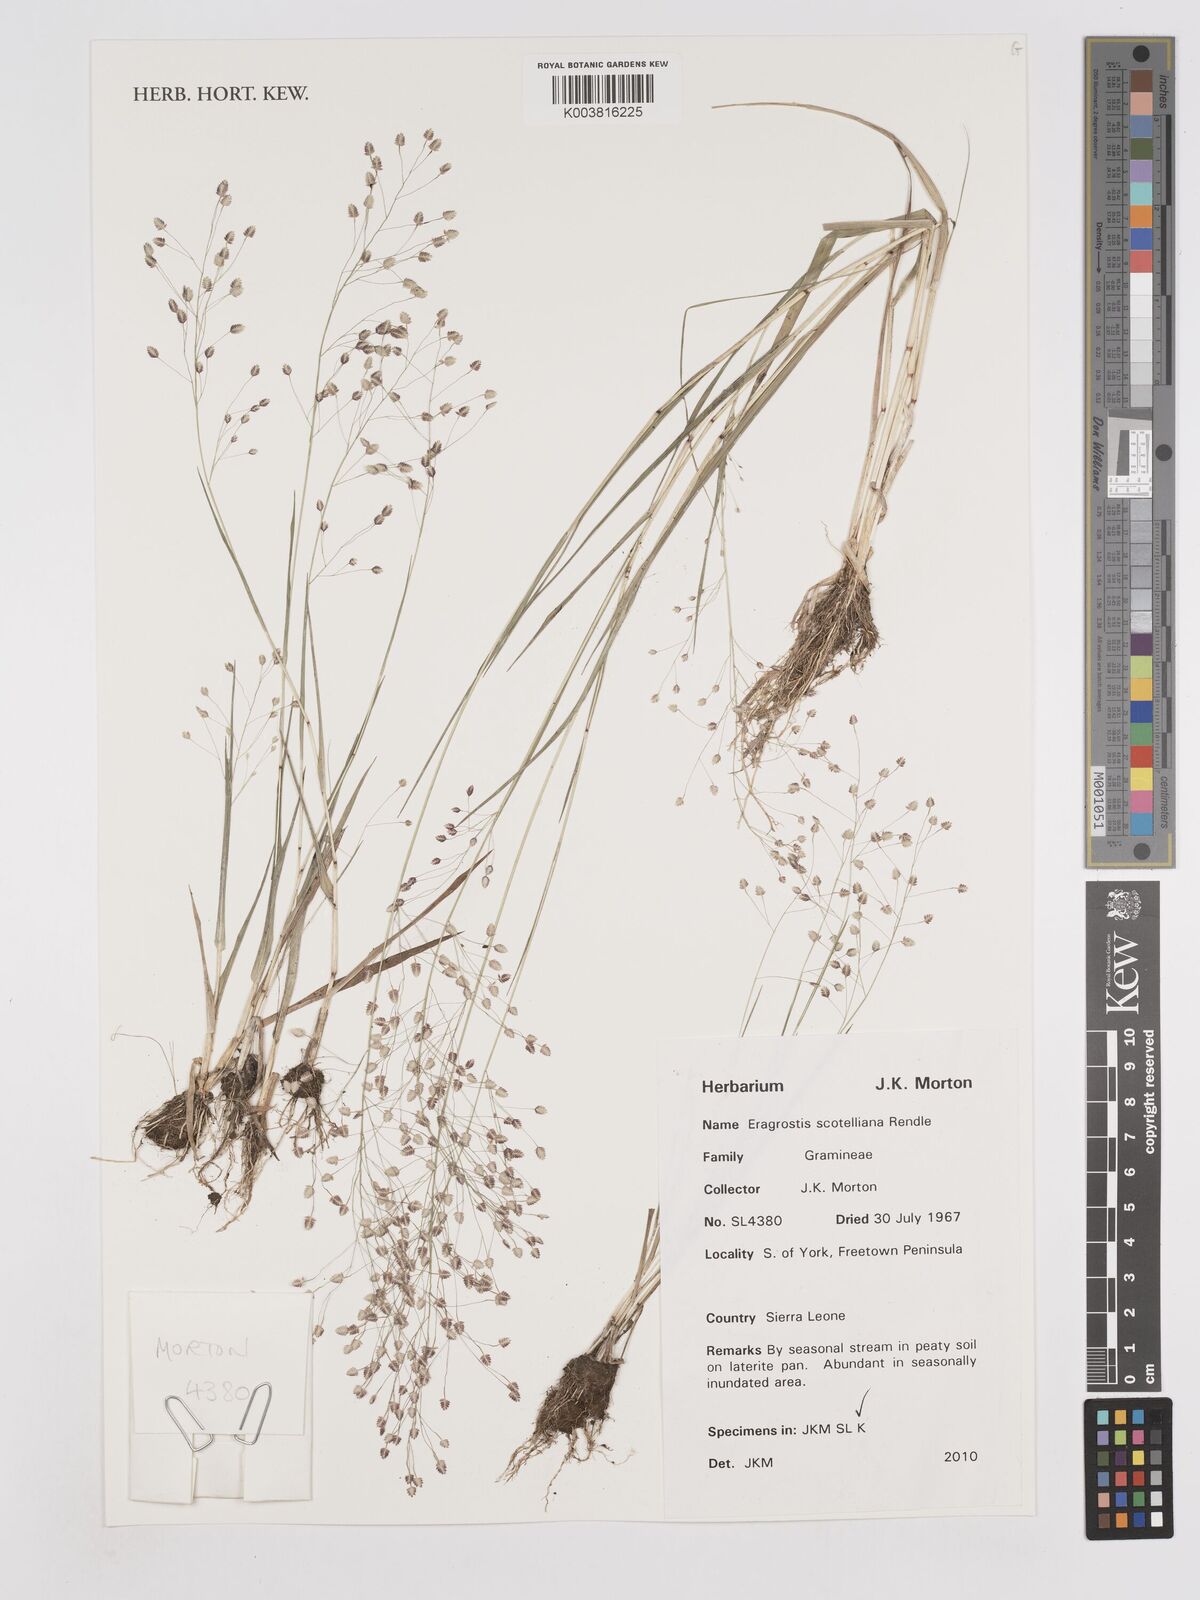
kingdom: Plantae
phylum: Tracheophyta
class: Liliopsida
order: Poales
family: Poaceae
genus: Eragrostis
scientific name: Eragrostis scotelliana
